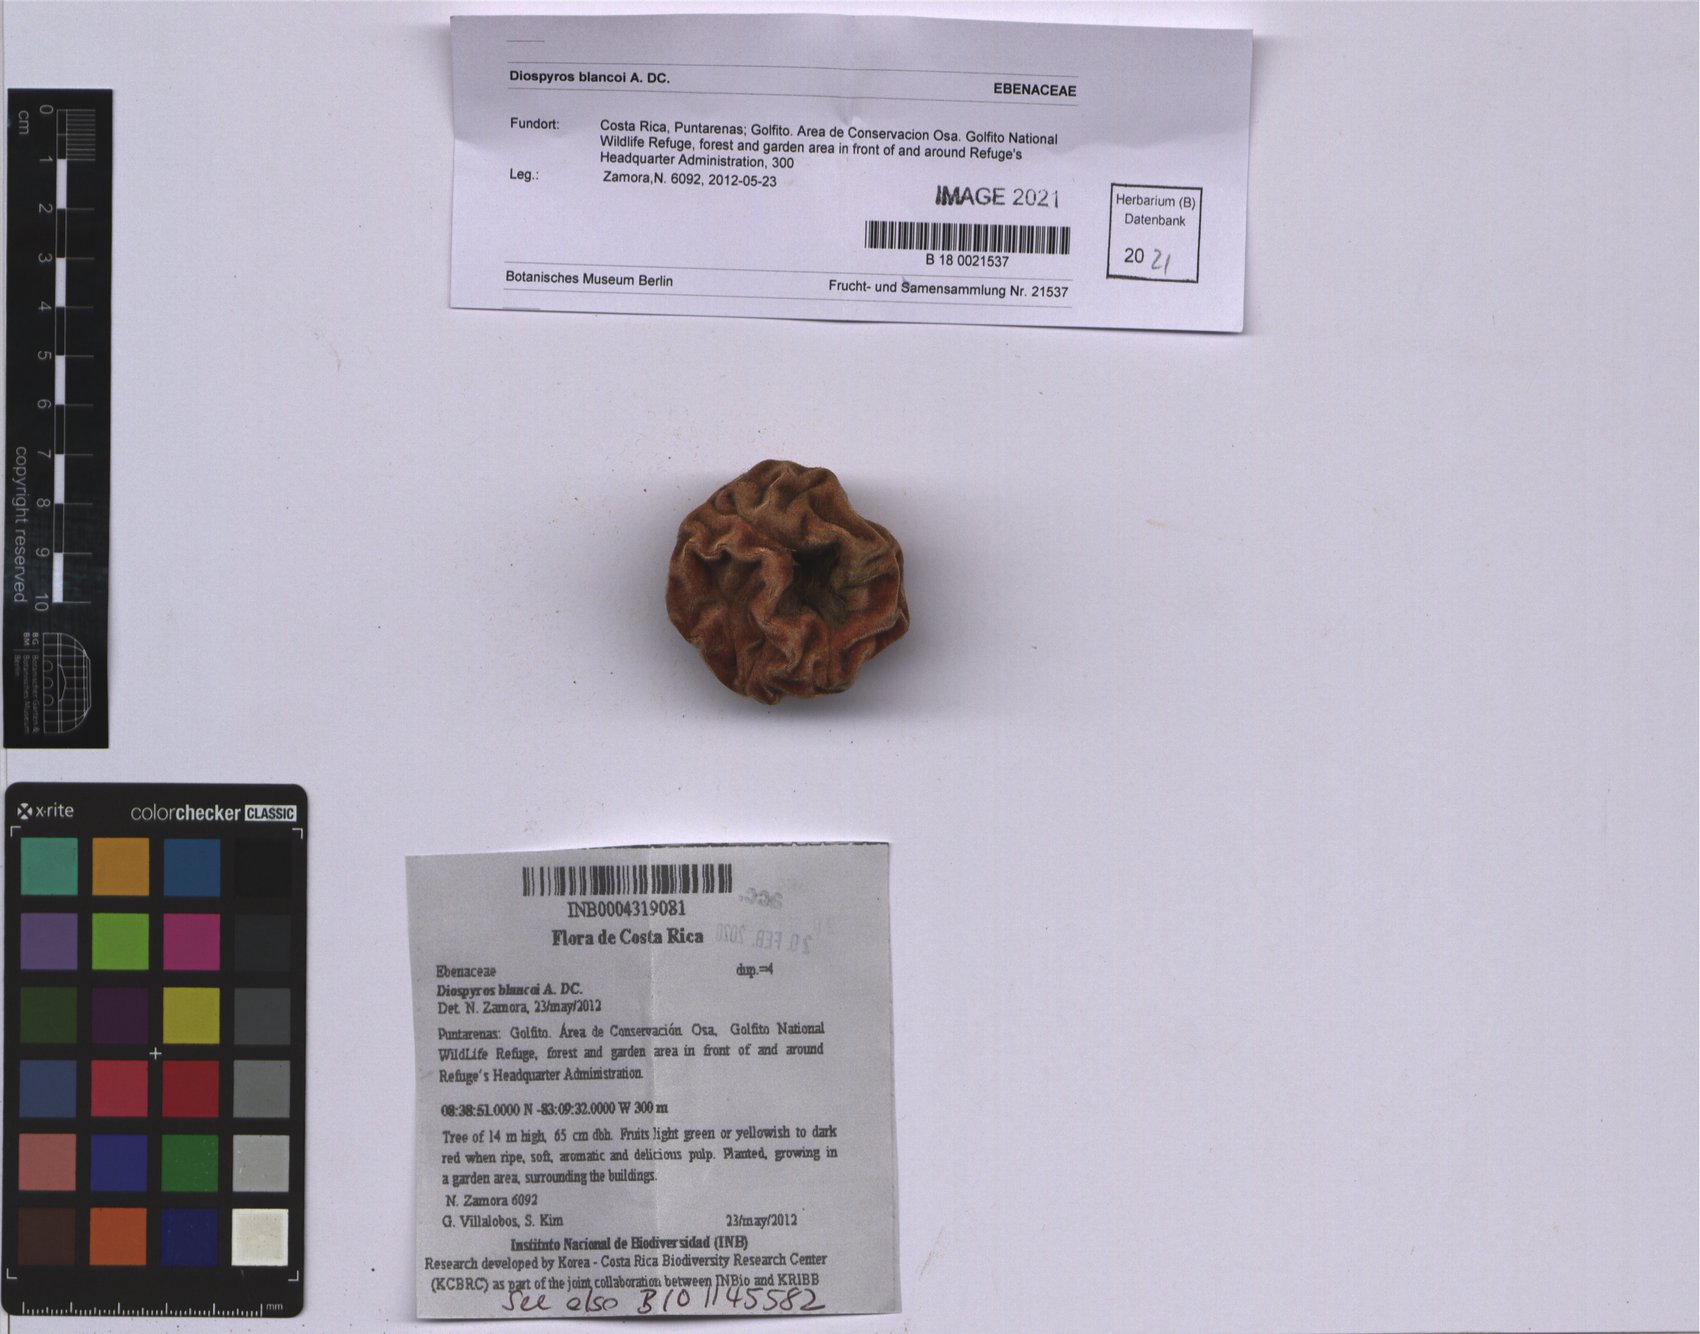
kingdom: Plantae
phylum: Tracheophyta
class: Magnoliopsida
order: Ericales
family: Ebenaceae
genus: Diospyros
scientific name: Diospyros blancoi
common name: Mabola-tree
